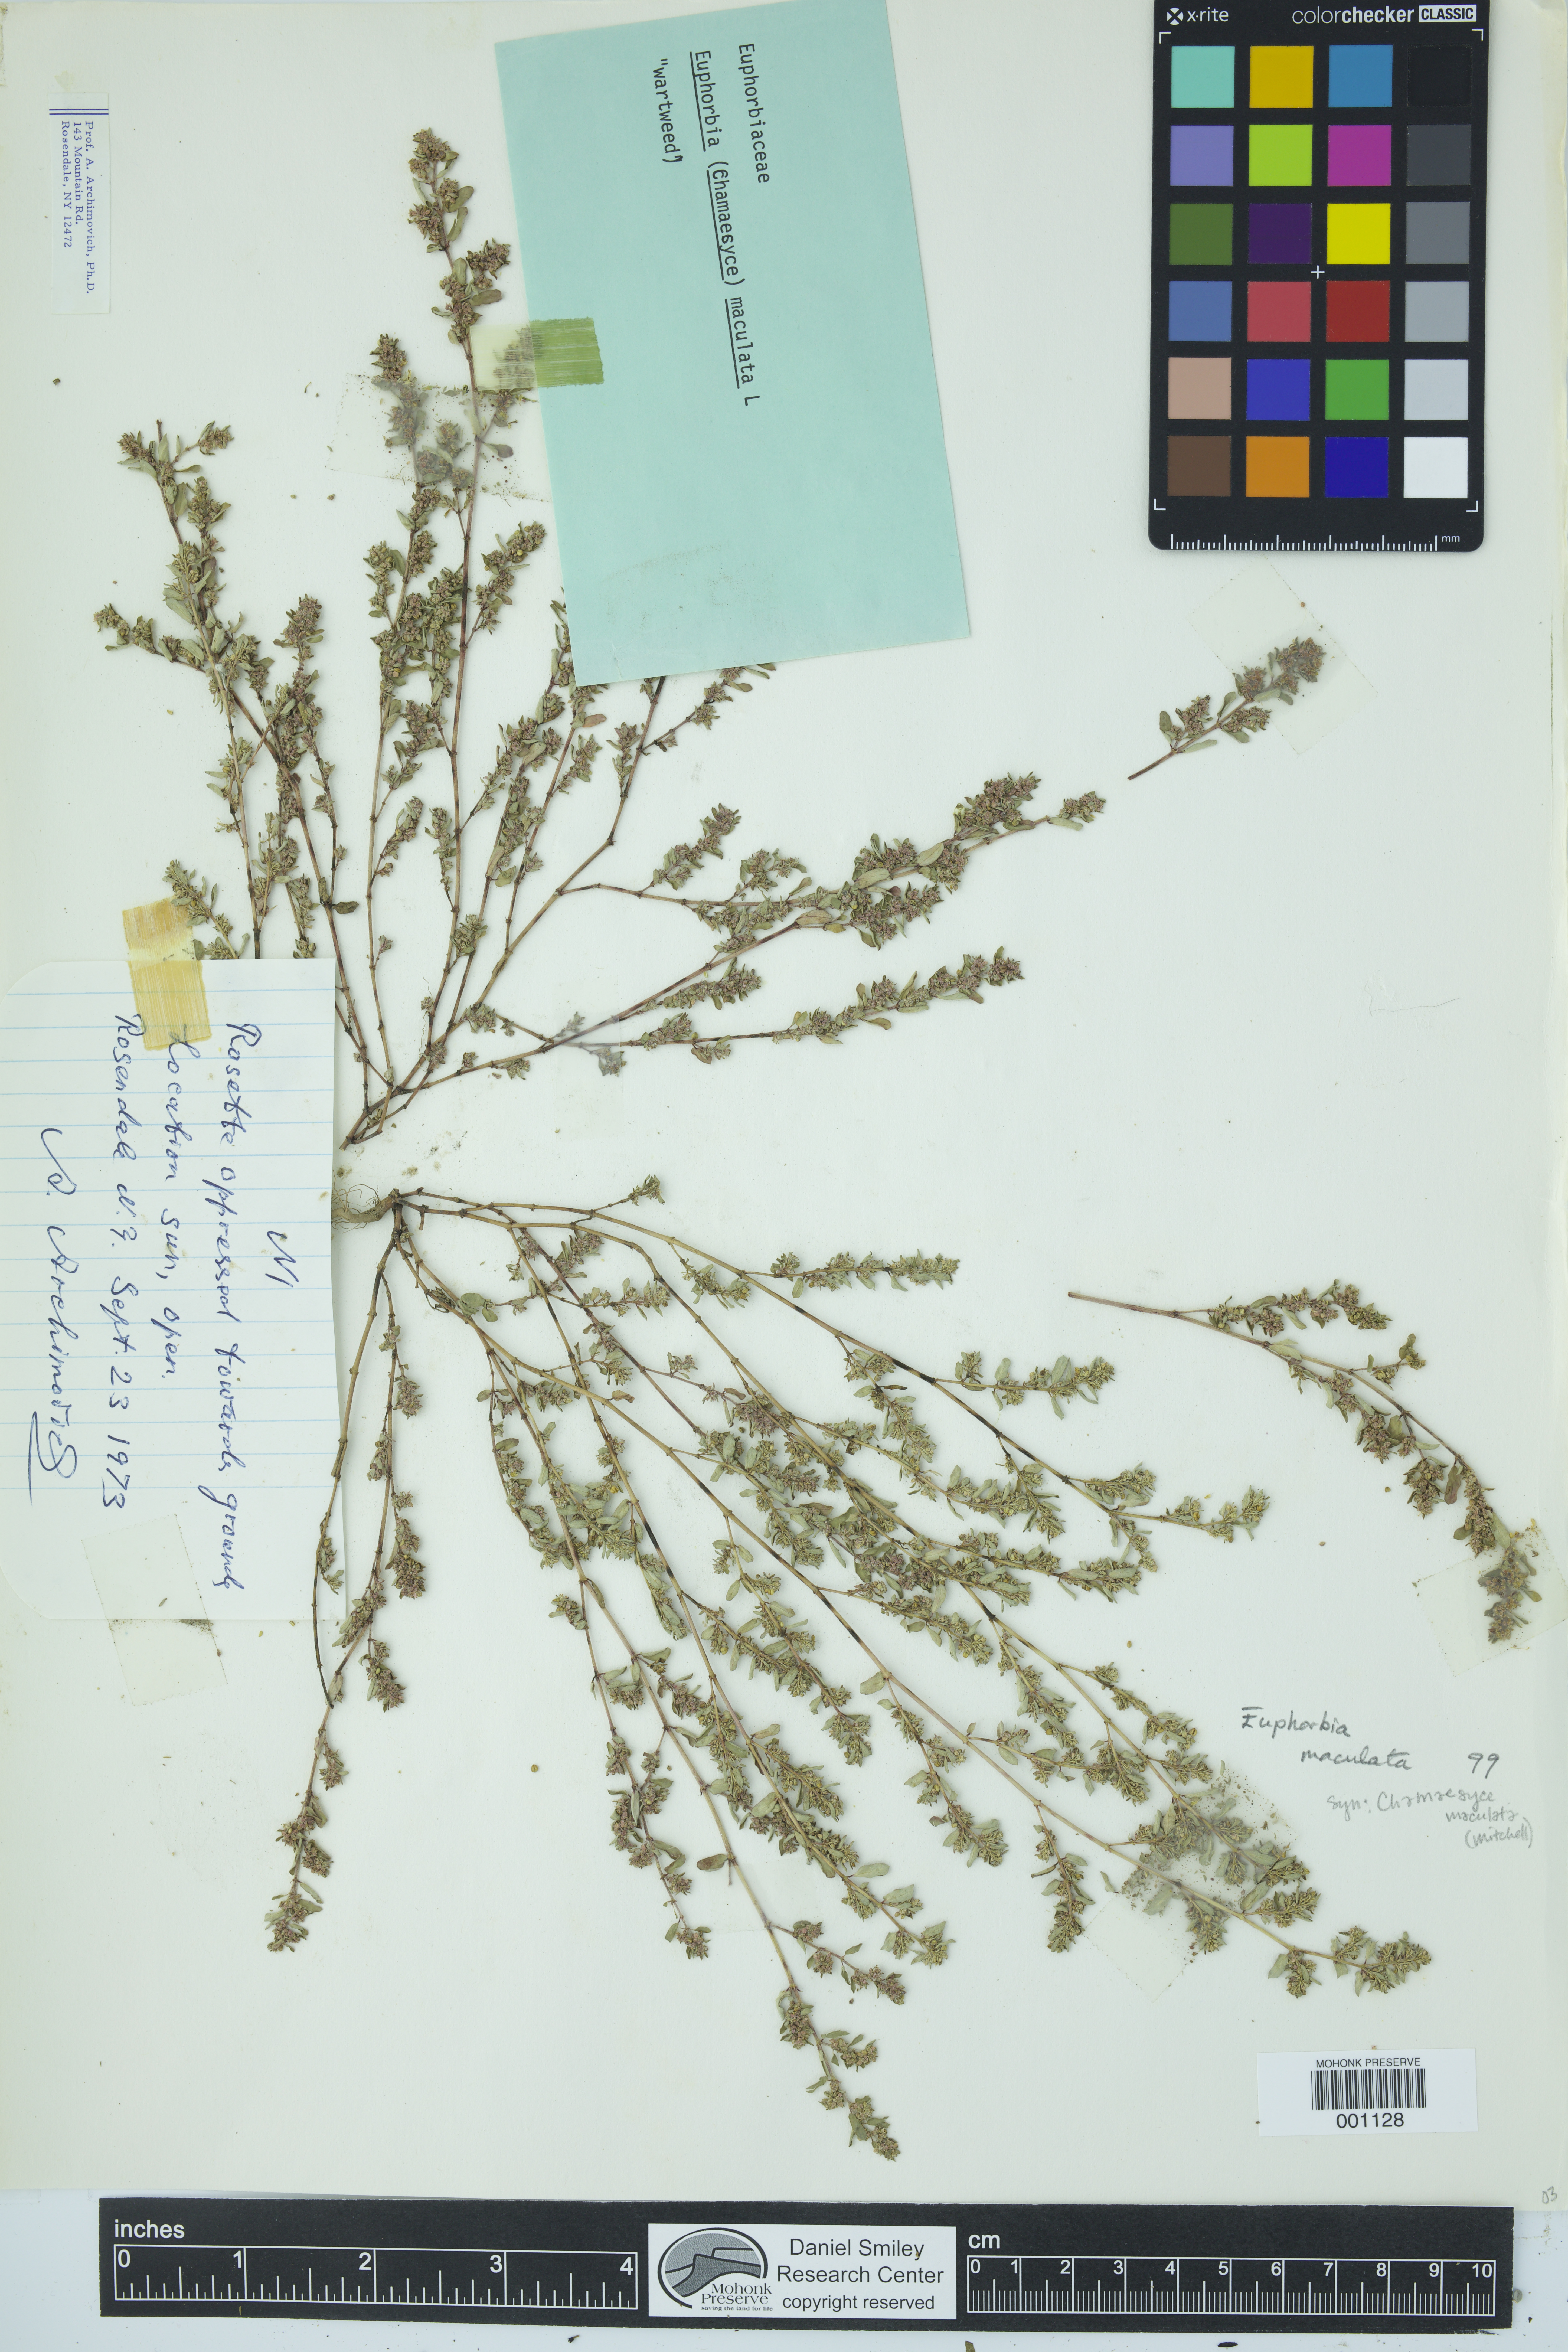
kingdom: Plantae
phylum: Tracheophyta
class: Magnoliopsida
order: Malpighiales
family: Euphorbiaceae
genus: Euphorbia
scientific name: Euphorbia maculata
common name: Spotted spurge
